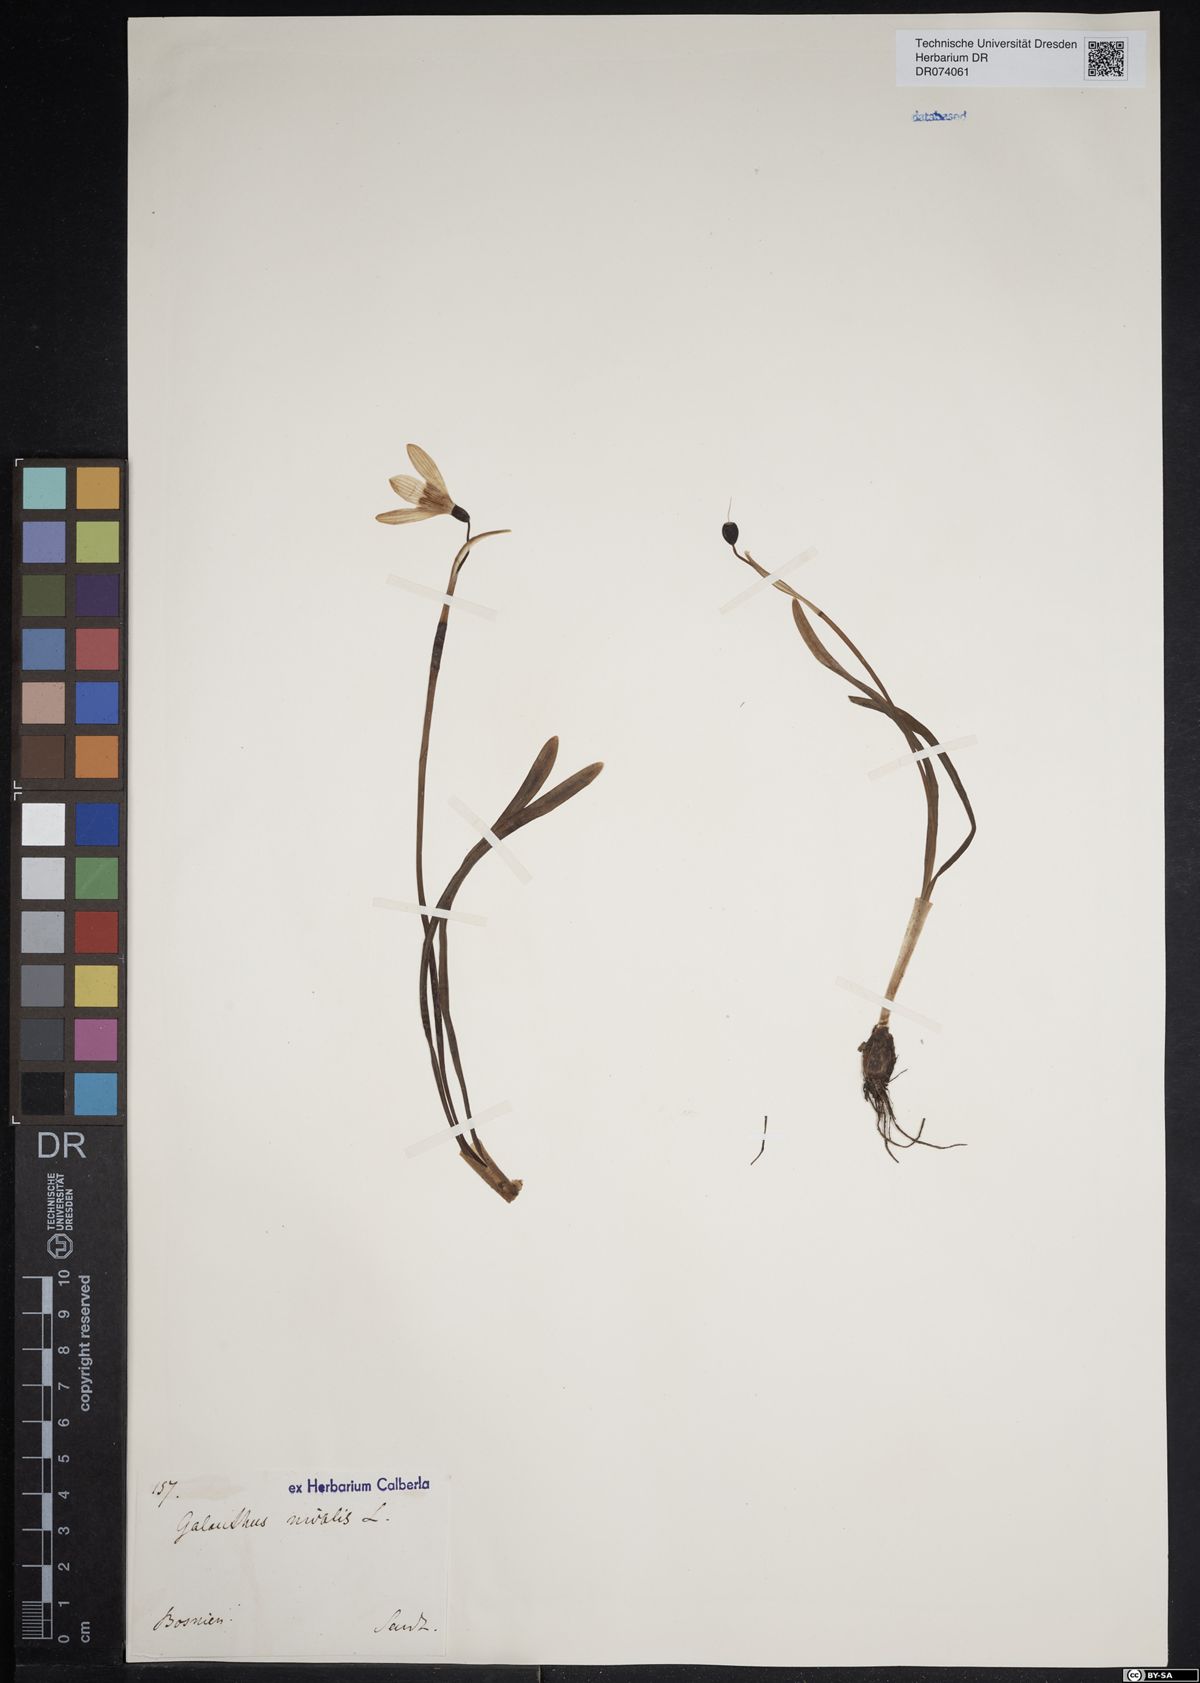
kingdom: Plantae
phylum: Tracheophyta
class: Liliopsida
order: Asparagales
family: Amaryllidaceae
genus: Galanthus
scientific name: Galanthus nivalis
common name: Snowdrop
